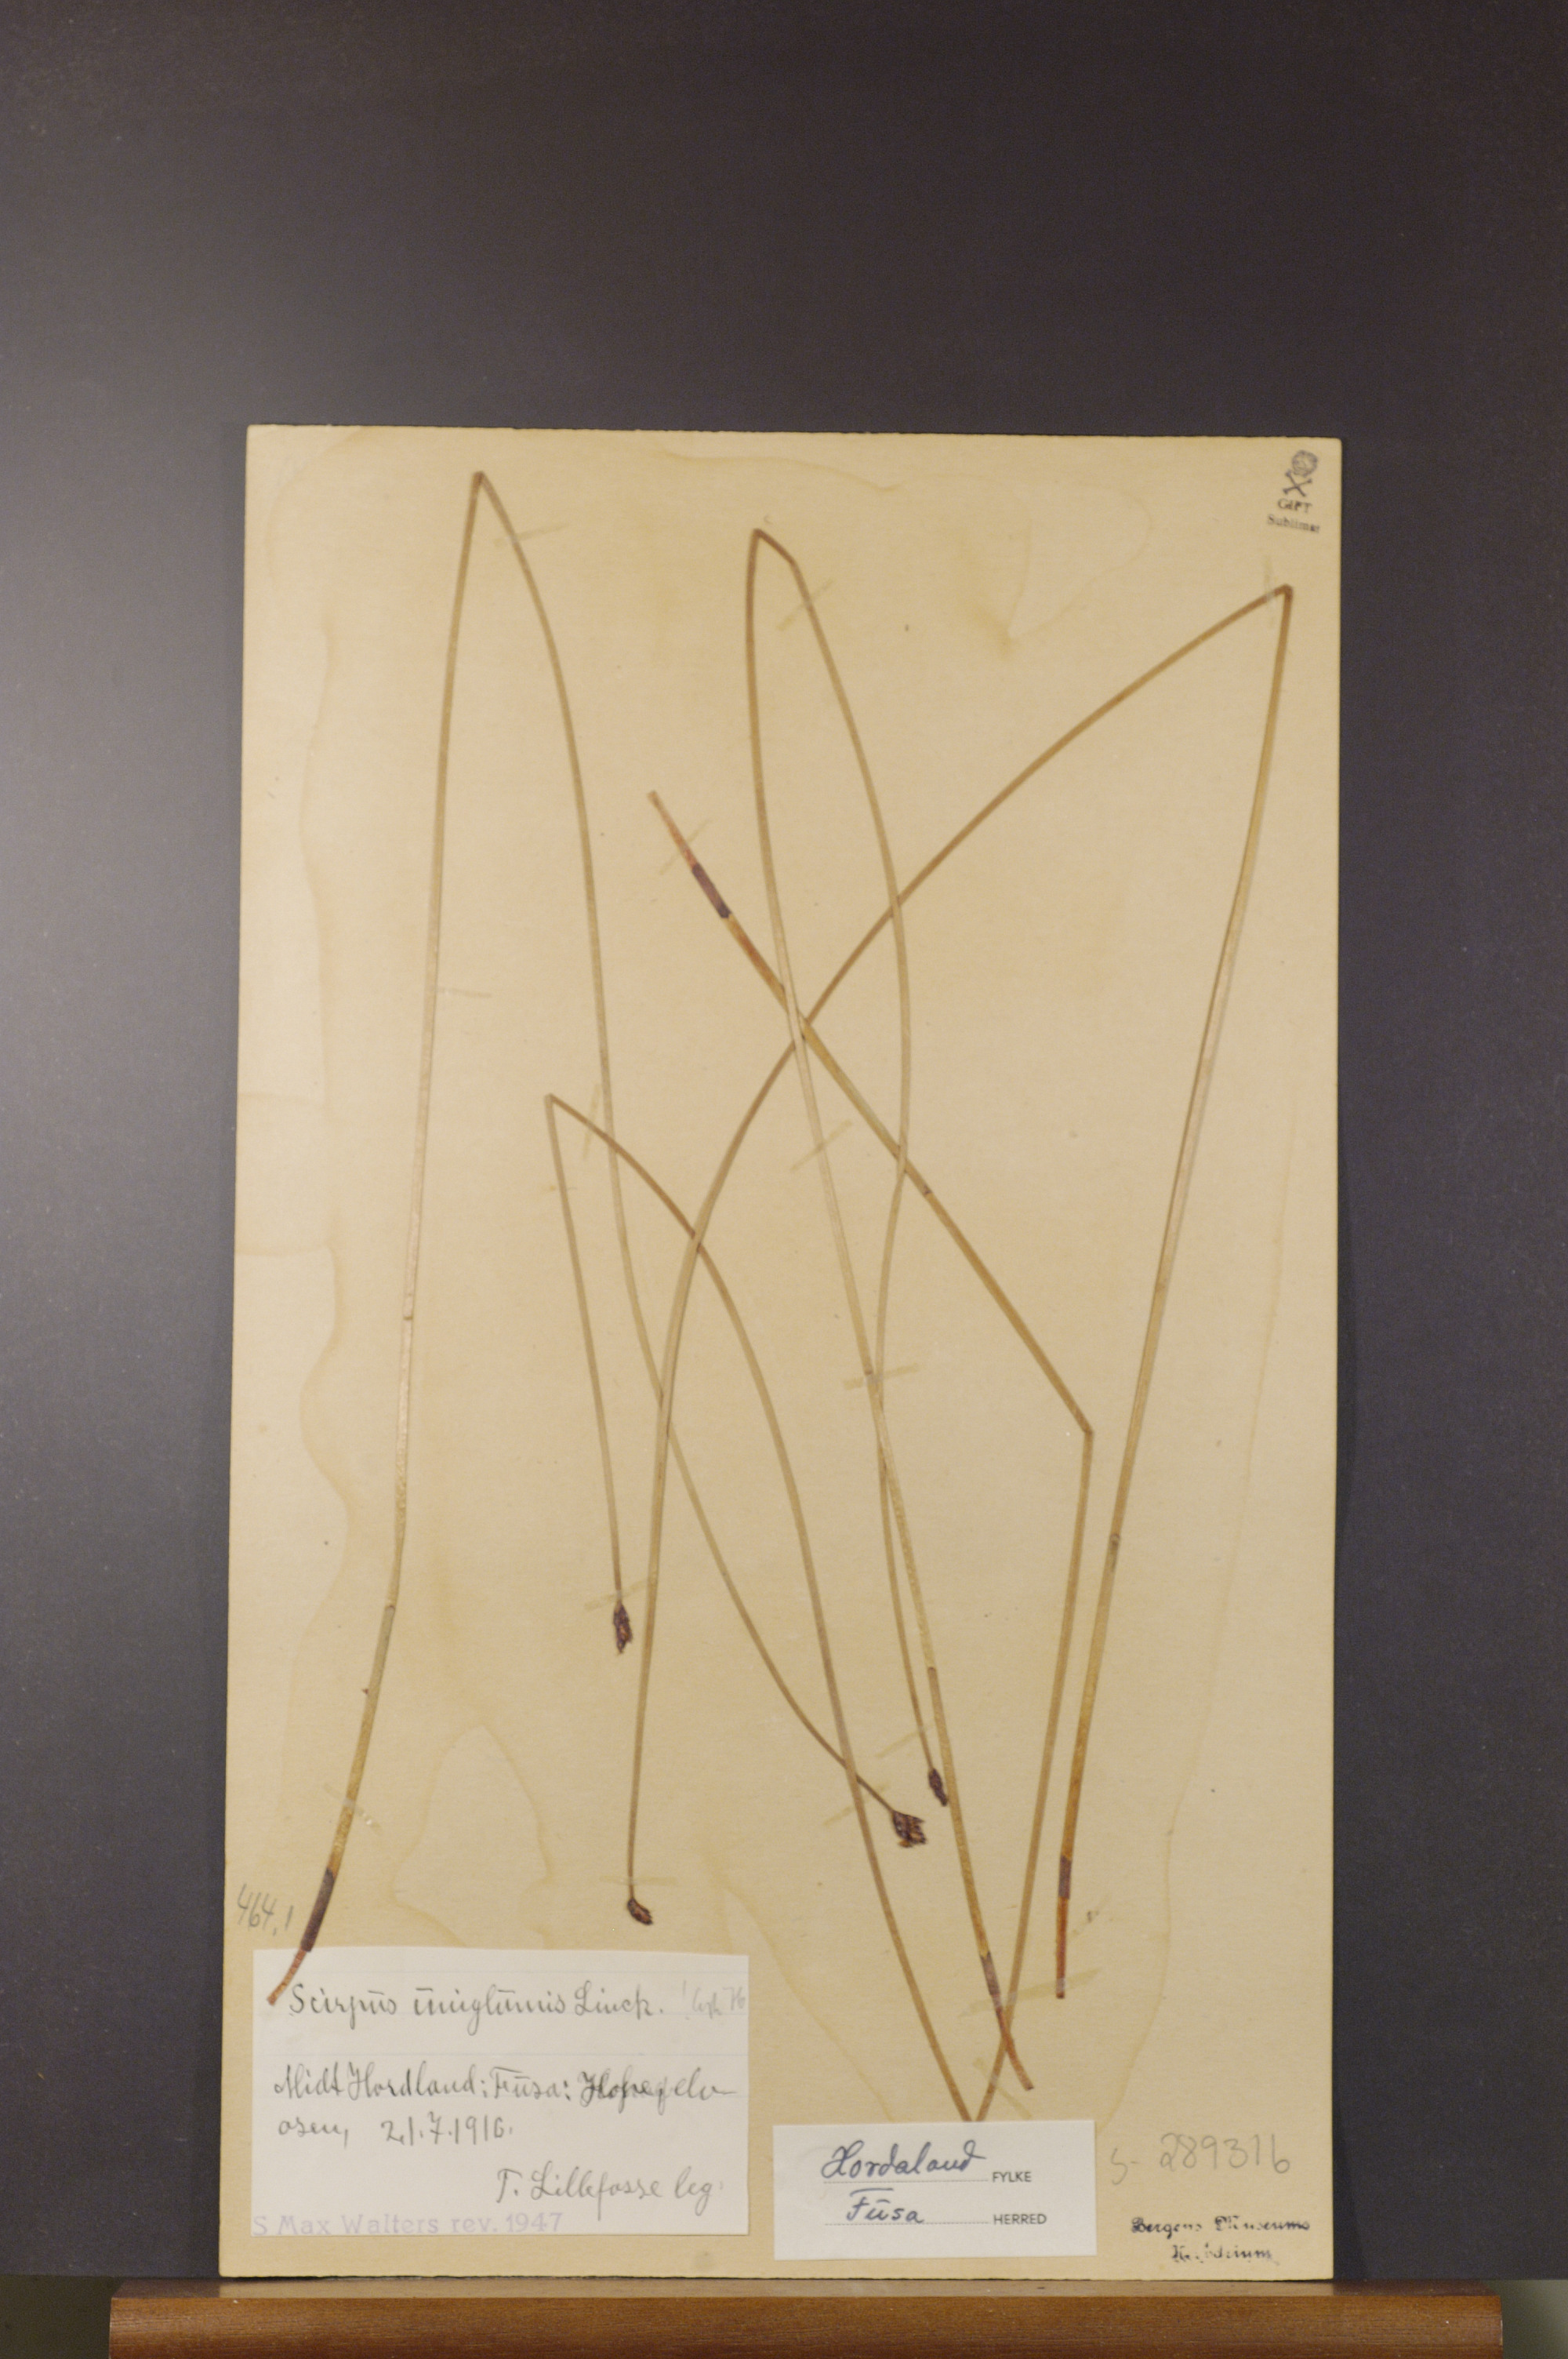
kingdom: Plantae
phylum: Tracheophyta
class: Liliopsida
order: Poales
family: Cyperaceae
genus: Eleocharis
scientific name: Eleocharis uniglumis
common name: Slender spike-rush
